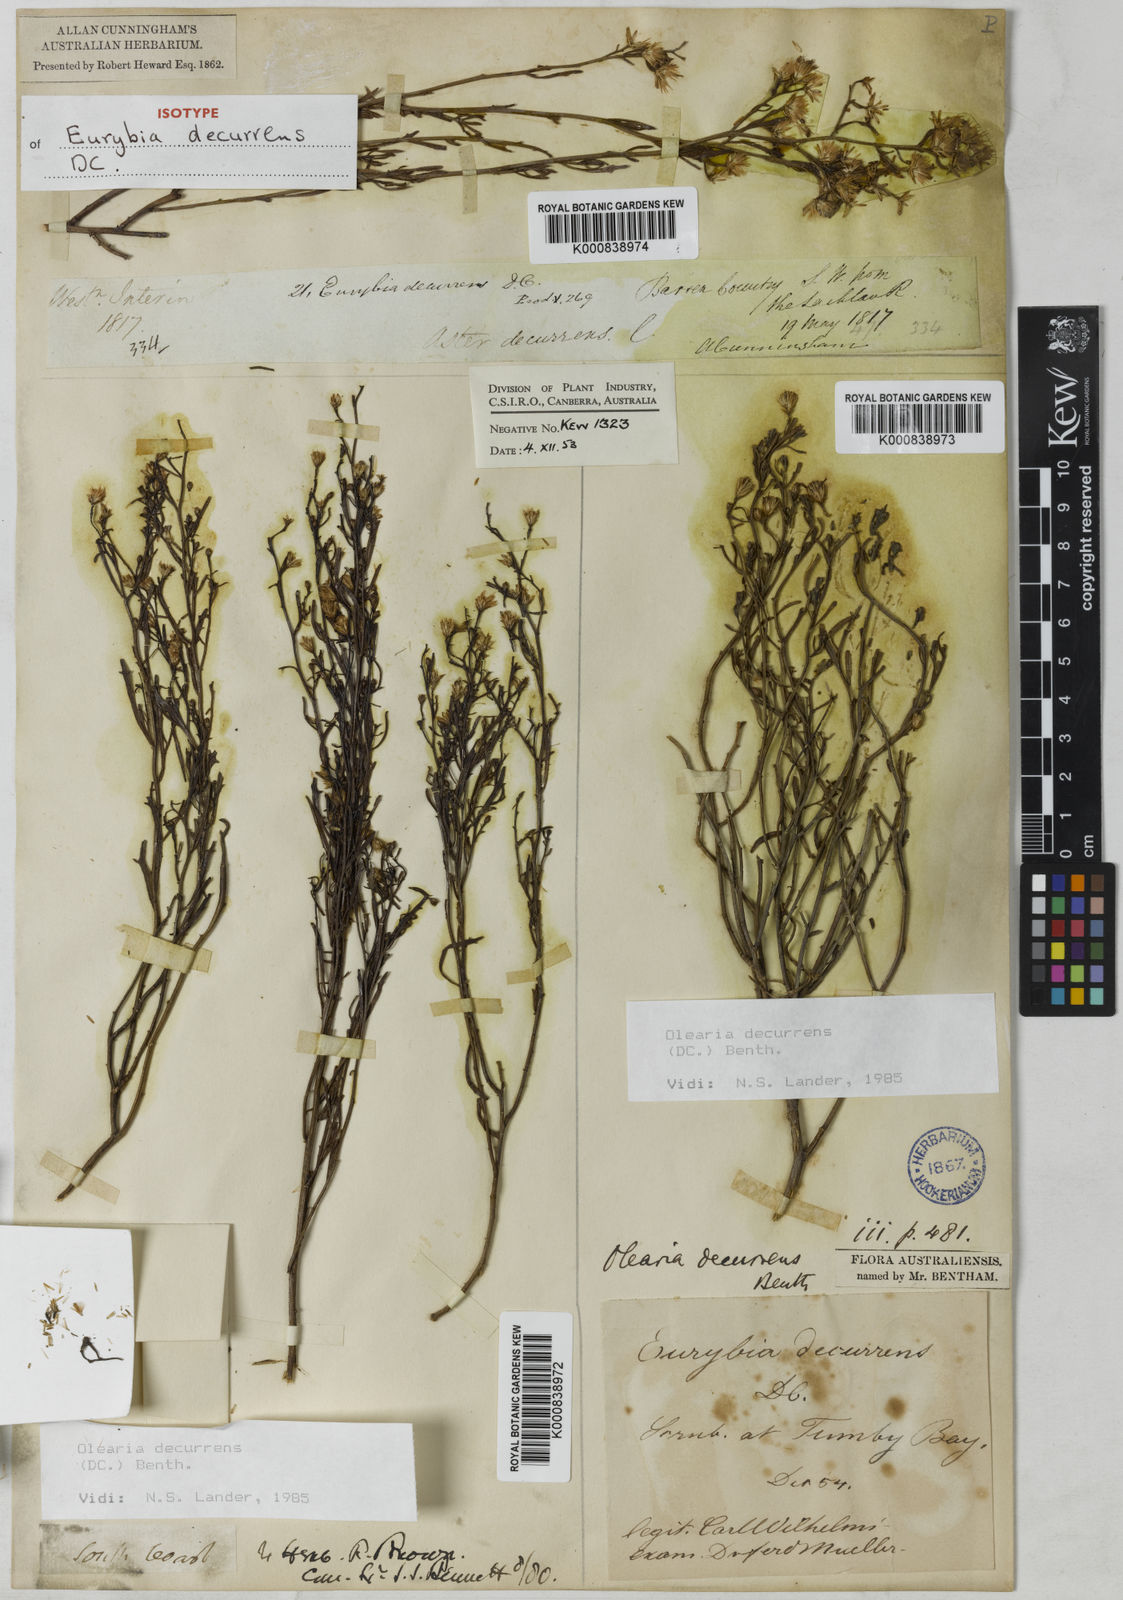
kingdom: Plantae
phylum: Tracheophyta
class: Magnoliopsida
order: Asterales
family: Asteraceae
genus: Olearia
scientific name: Olearia decurrens
